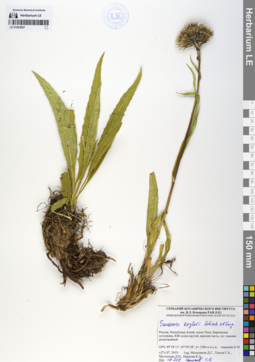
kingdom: Plantae
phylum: Tracheophyta
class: Magnoliopsida
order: Asterales
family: Asteraceae
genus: Saussurea
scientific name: Saussurea krylovii
